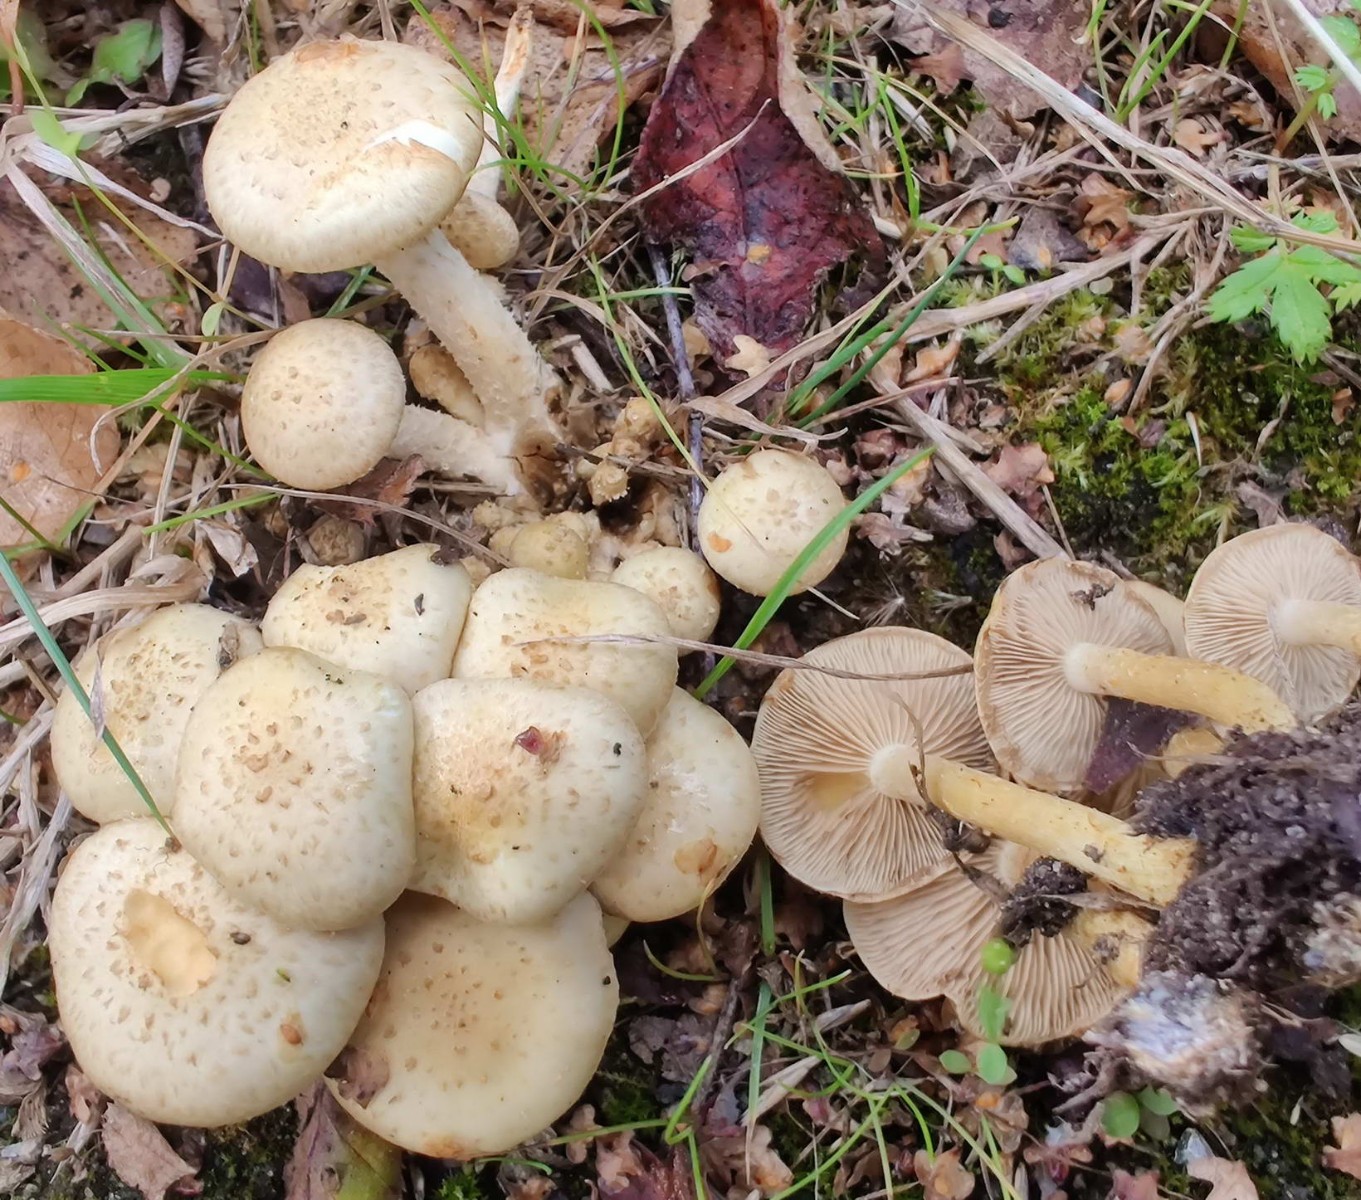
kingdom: Fungi
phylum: Basidiomycota
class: Agaricomycetes
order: Agaricales
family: Strophariaceae
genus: Pholiota
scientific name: Pholiota gummosa
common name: grøngul skælhat
